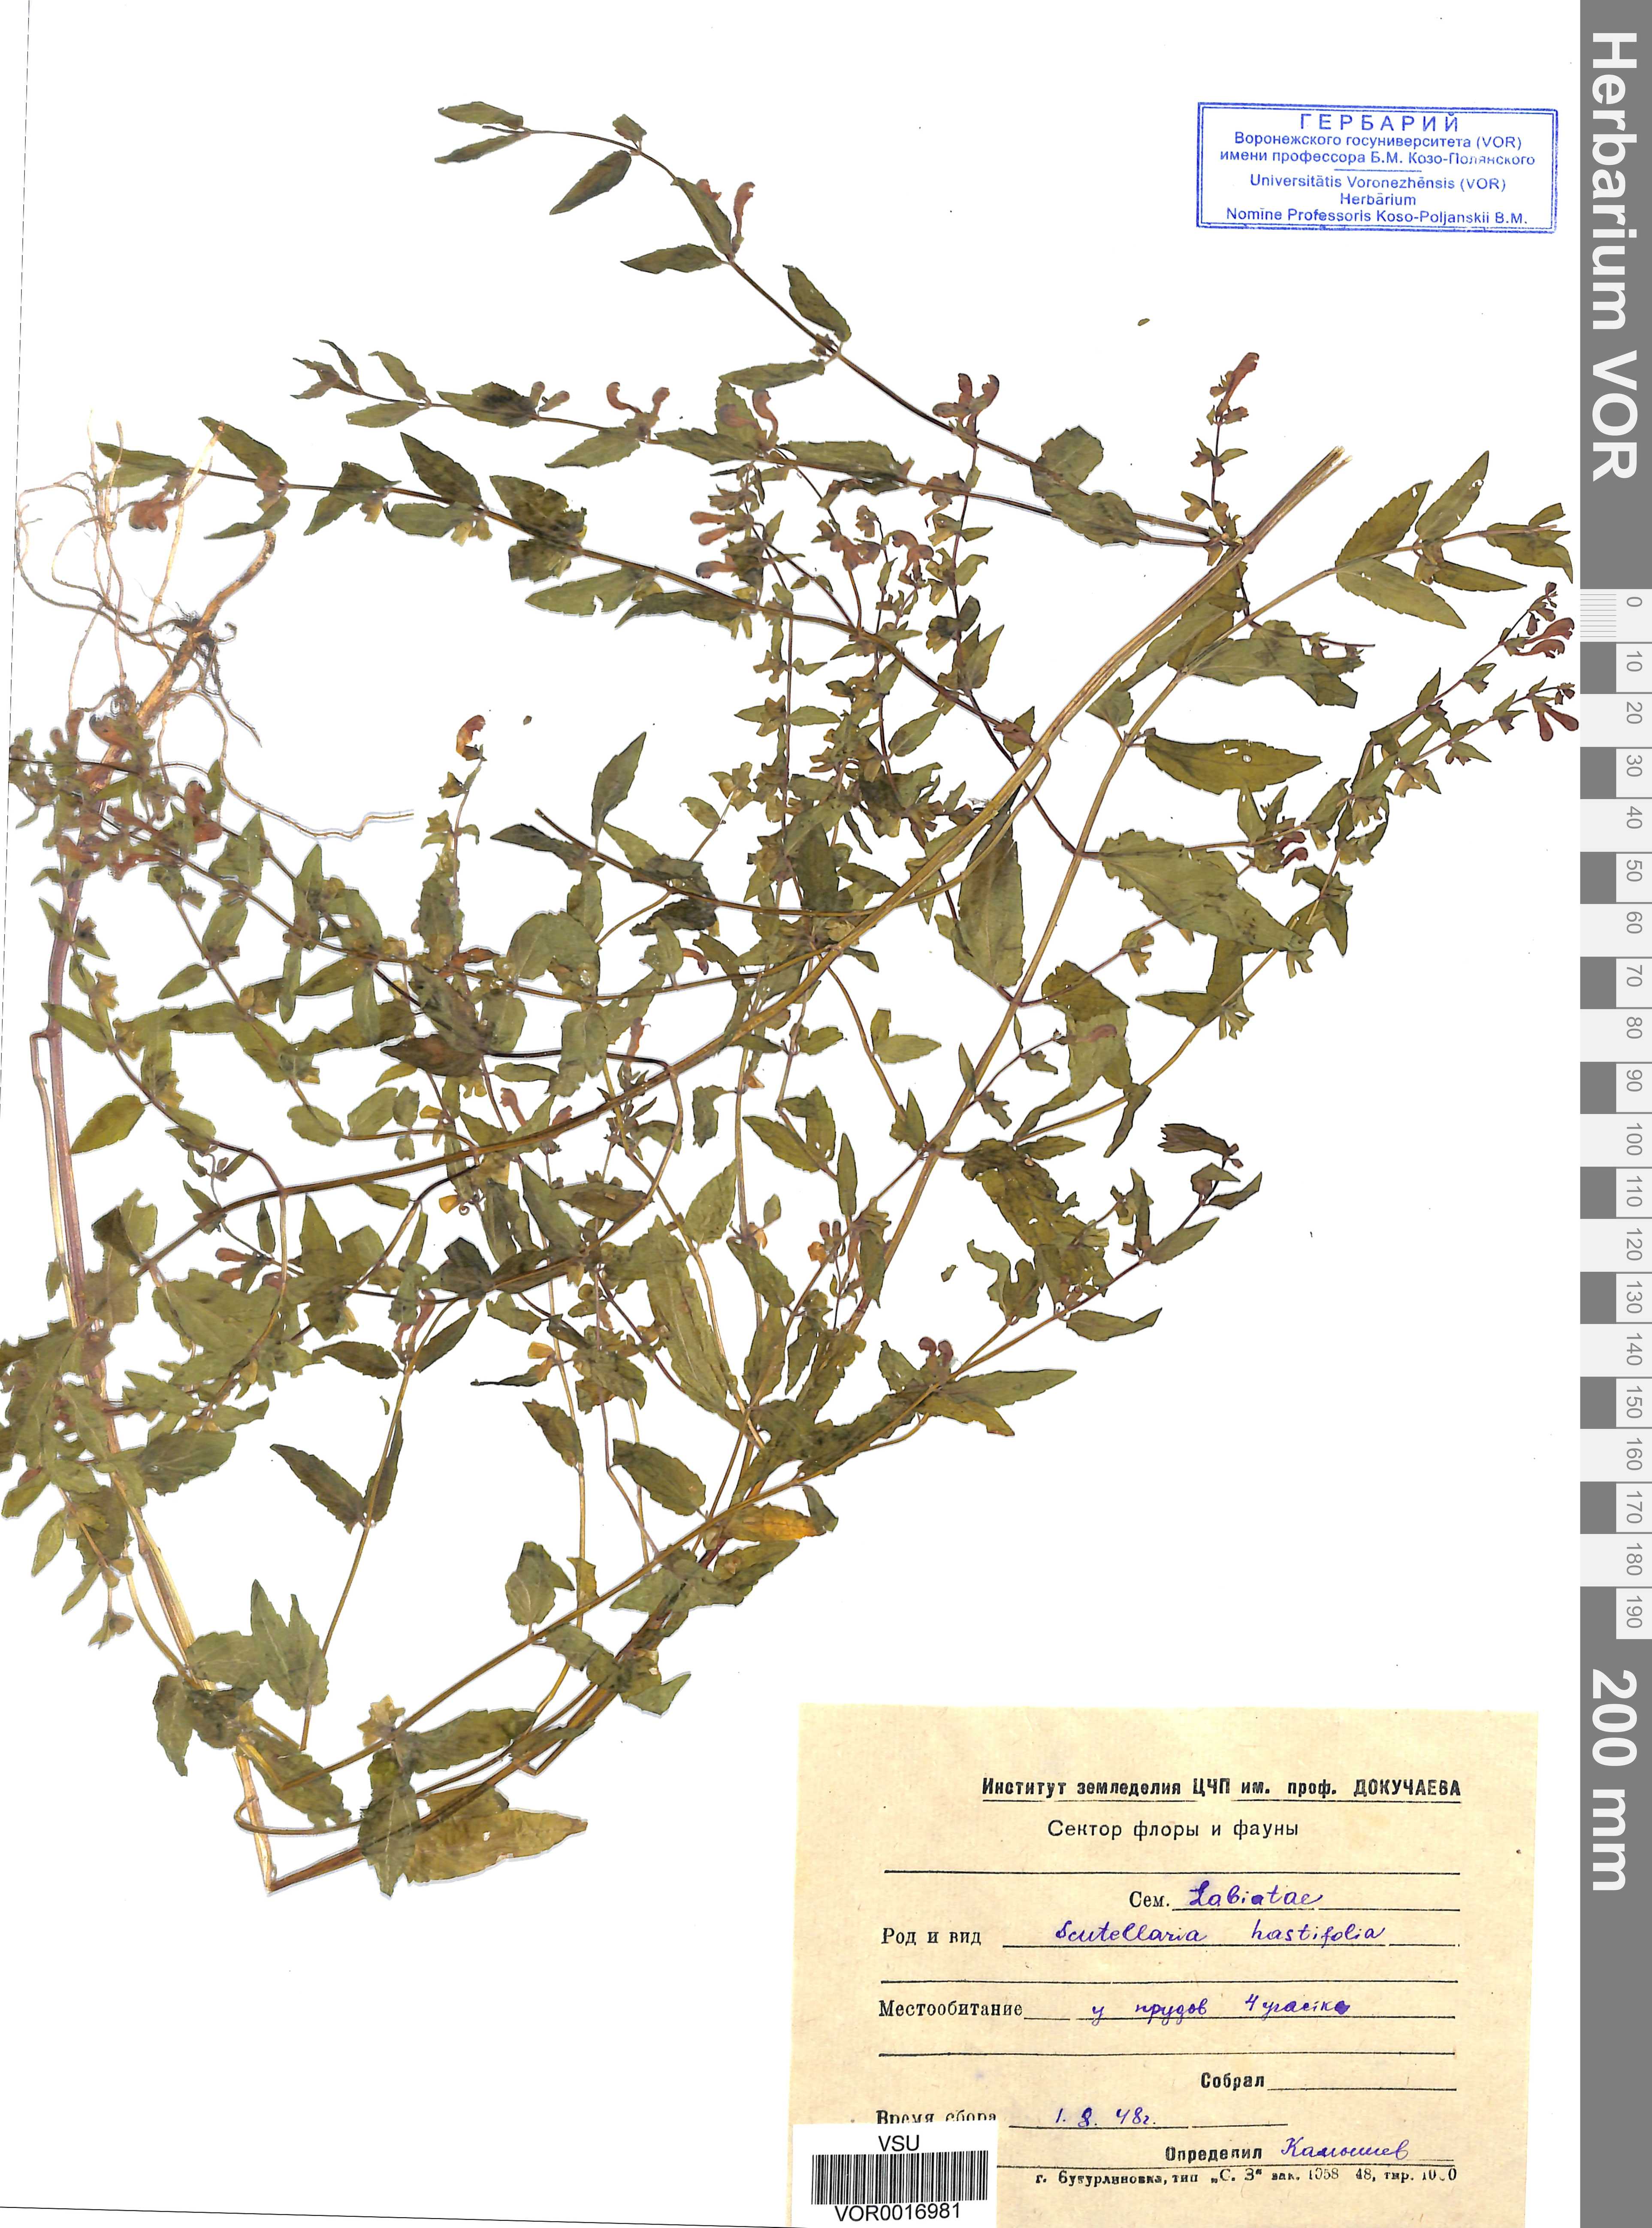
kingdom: Plantae
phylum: Tracheophyta
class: Magnoliopsida
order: Lamiales
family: Lamiaceae
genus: Scutellaria
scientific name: Scutellaria galericulata
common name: Skullcap
